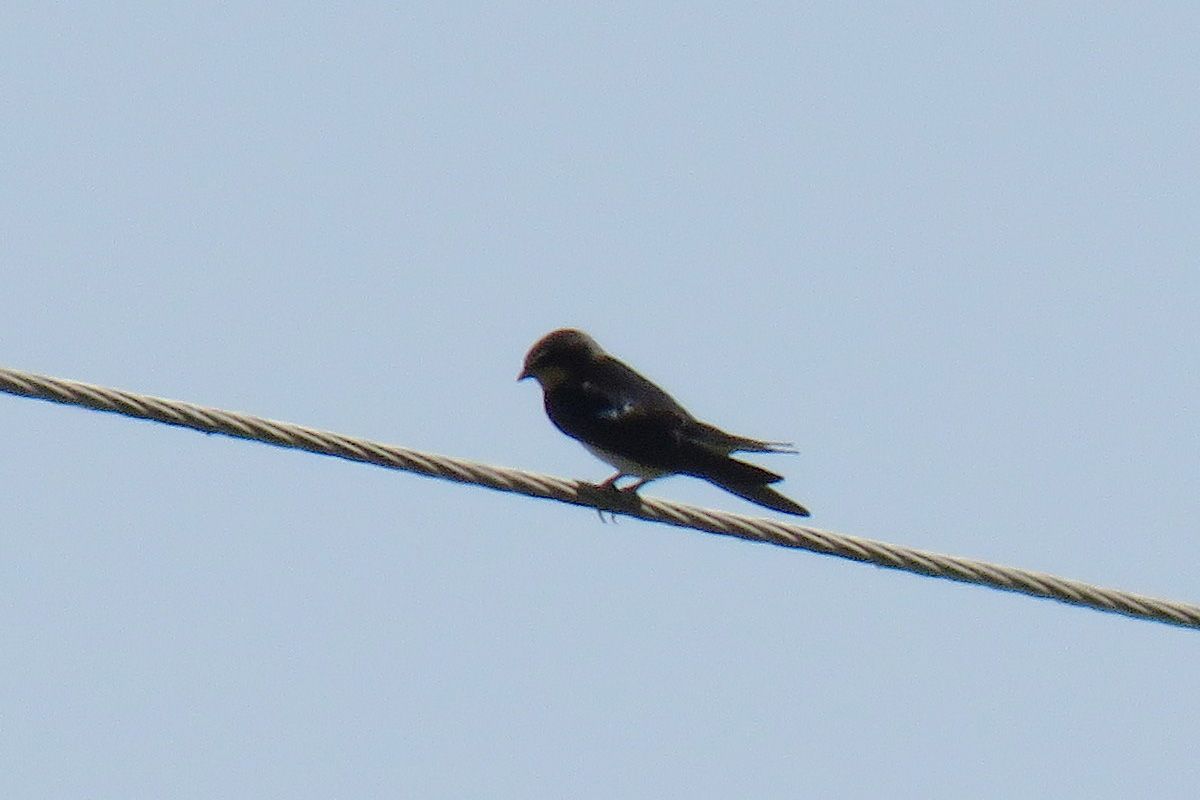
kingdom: Animalia
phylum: Chordata
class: Aves
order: Passeriformes
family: Hirundinidae
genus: Hirundo
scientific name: Hirundo rustica
